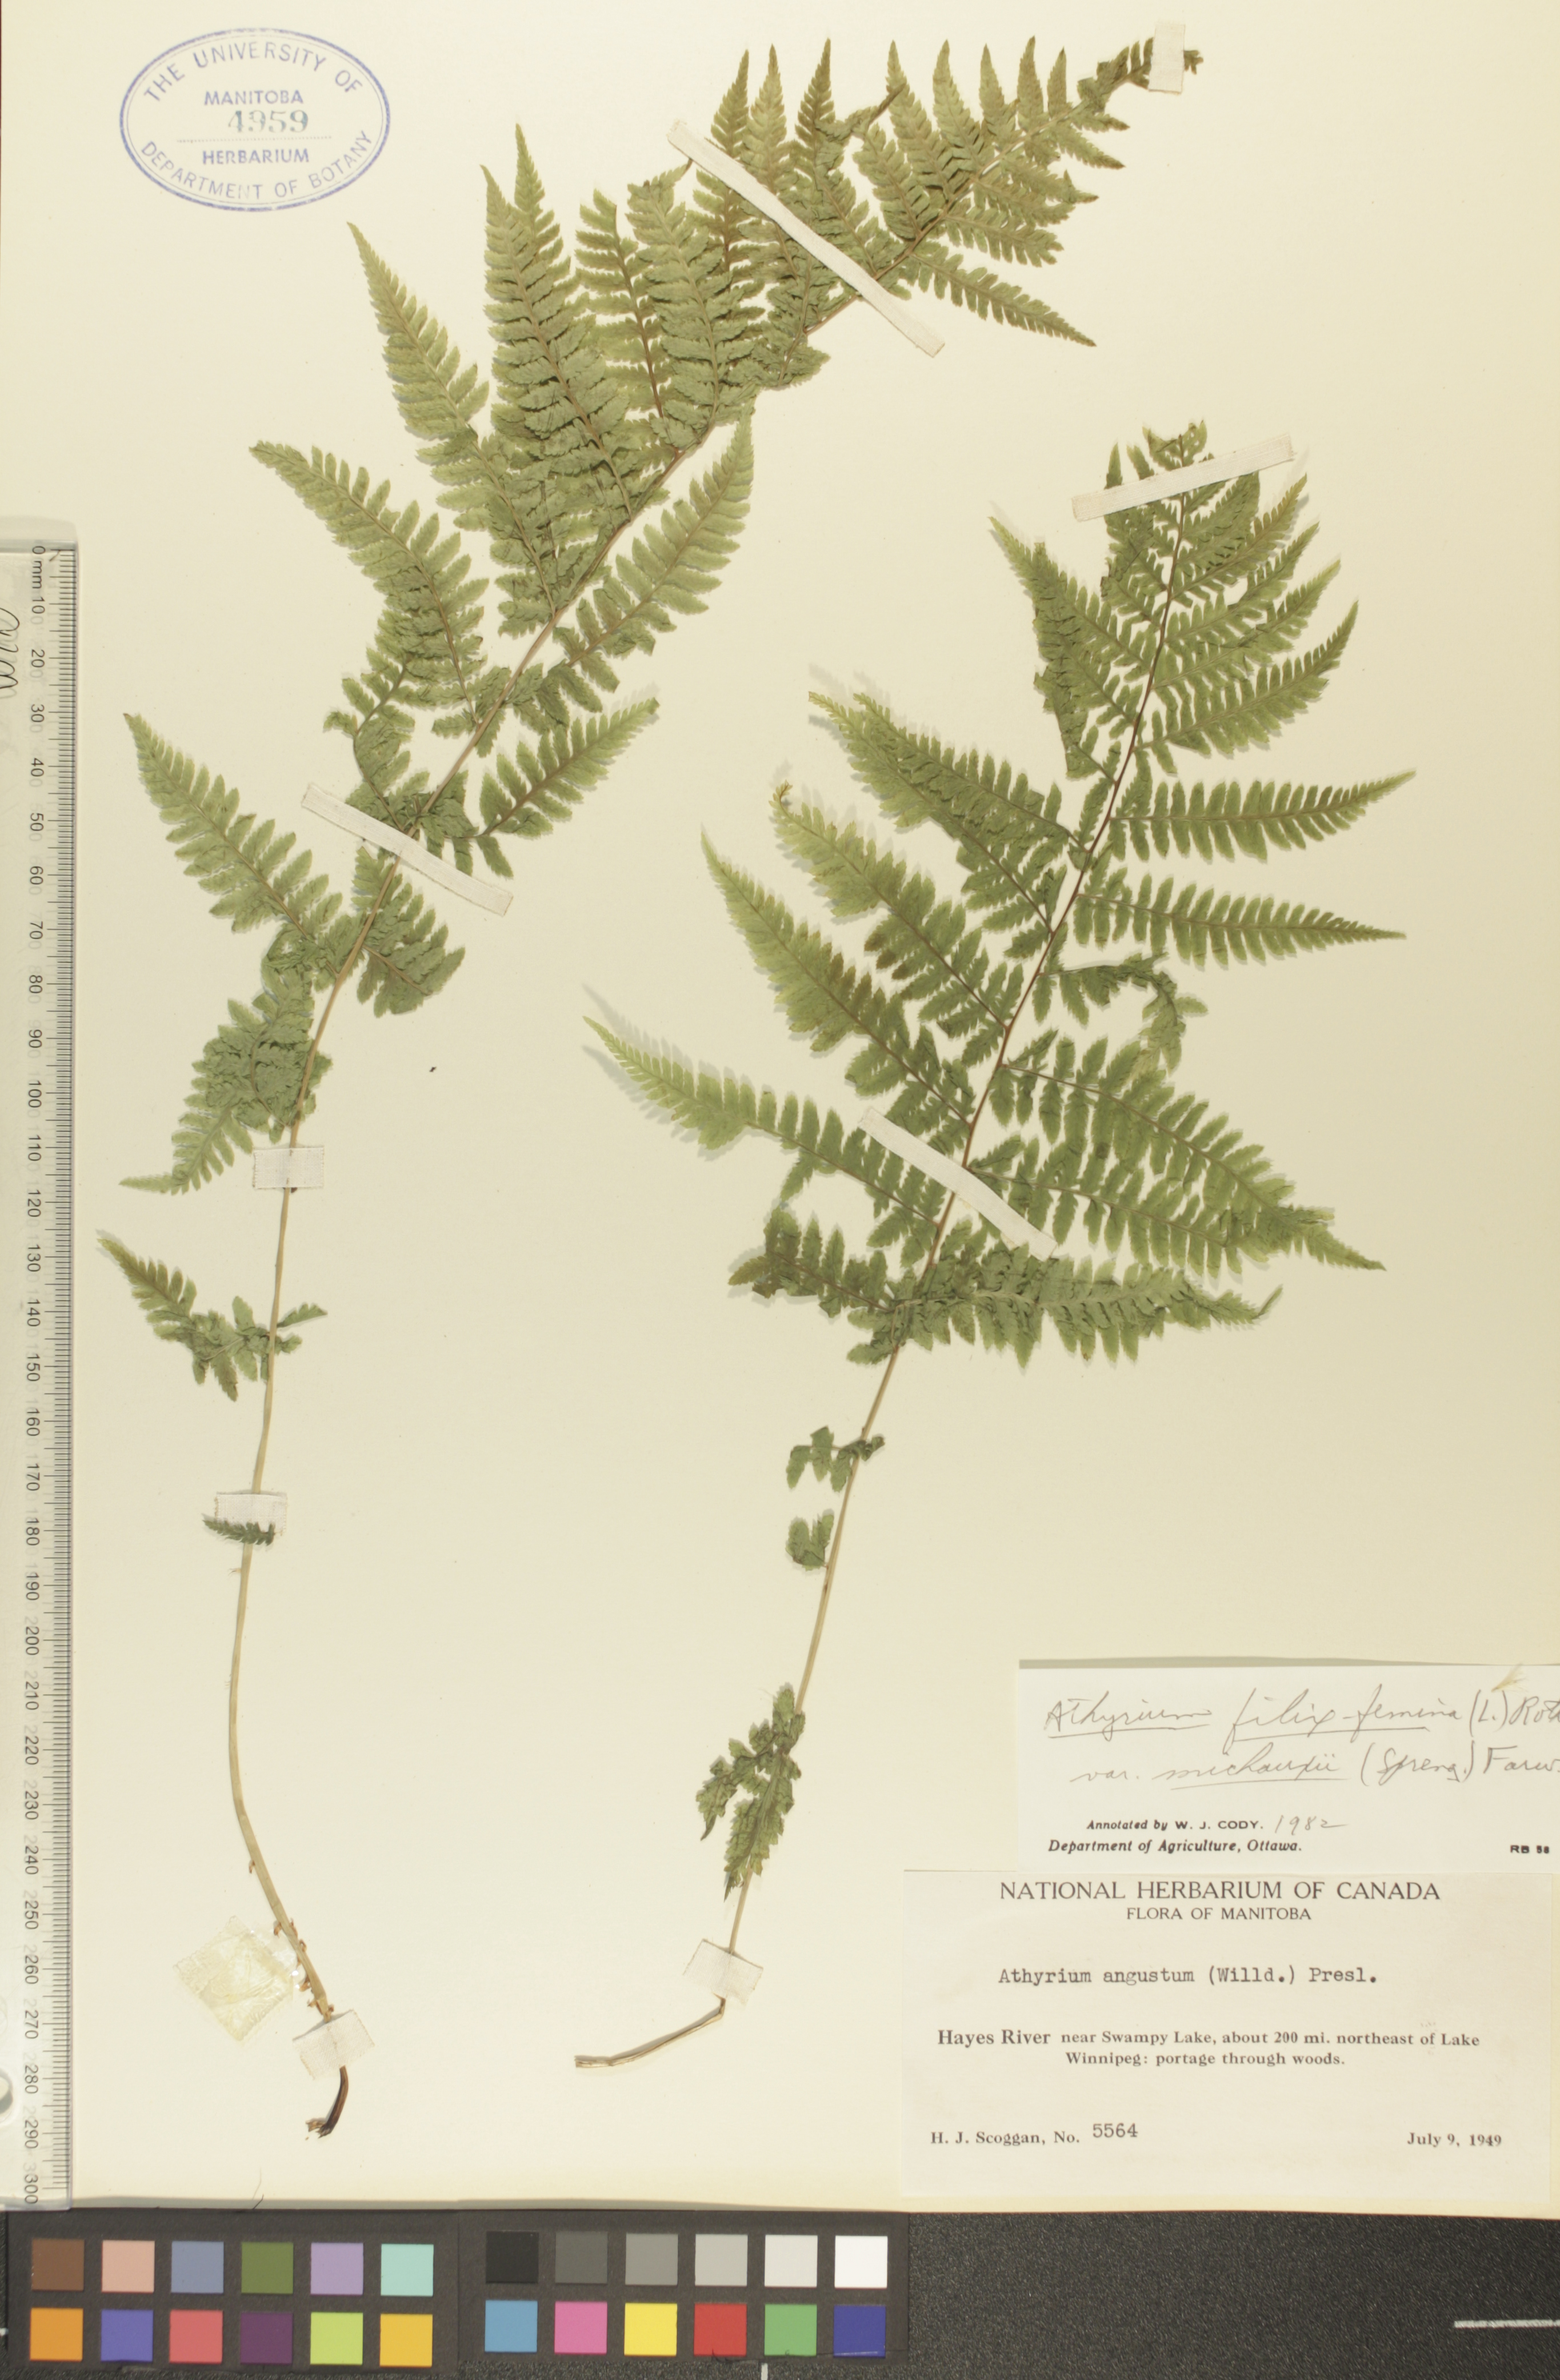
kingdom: Plantae
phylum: Tracheophyta
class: Polypodiopsida
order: Polypodiales
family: Athyriaceae
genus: Athyrium
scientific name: Athyrium angustum
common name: Northern lady fern
